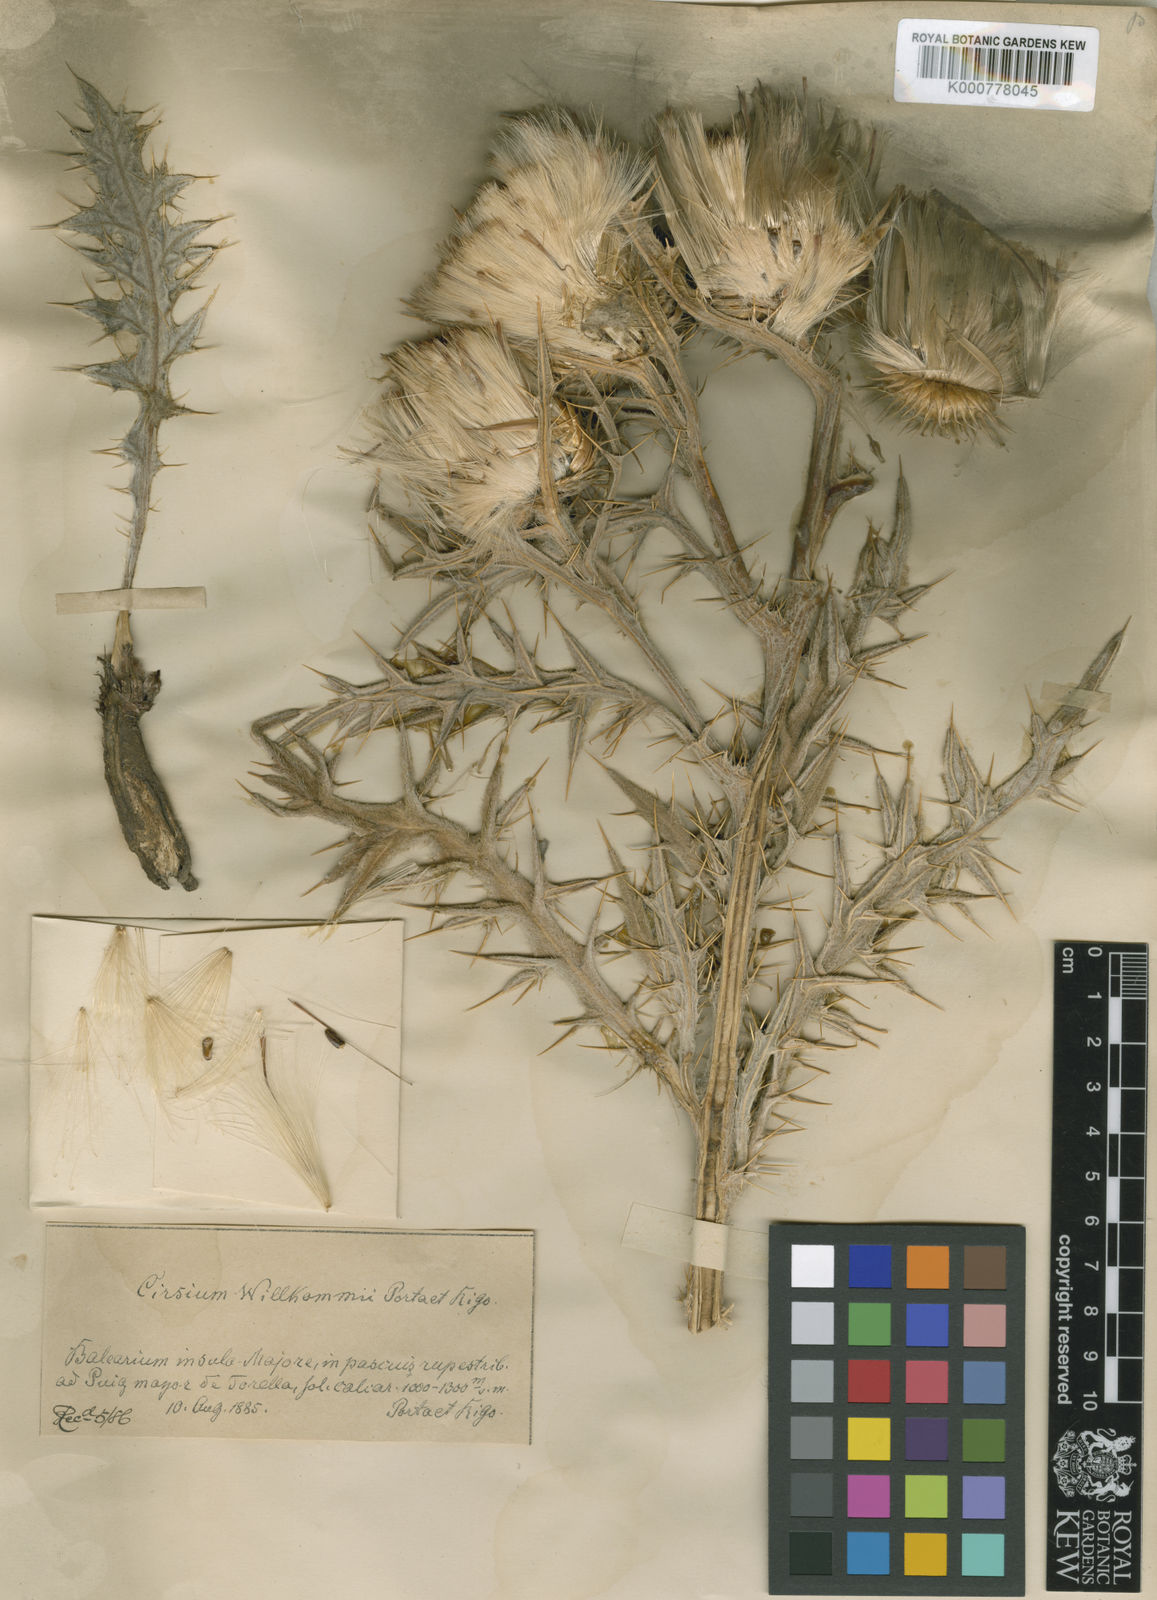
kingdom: Plantae
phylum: Tracheophyta
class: Magnoliopsida
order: Asterales
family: Asteraceae
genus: Lophiolepis
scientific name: Lophiolepis echinata
